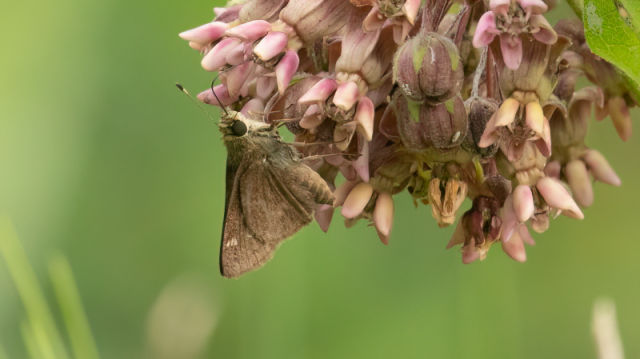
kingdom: Animalia
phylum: Arthropoda
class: Insecta
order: Lepidoptera
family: Hesperiidae
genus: Polites
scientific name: Polites egeremet
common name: Northern Broken-Dash
